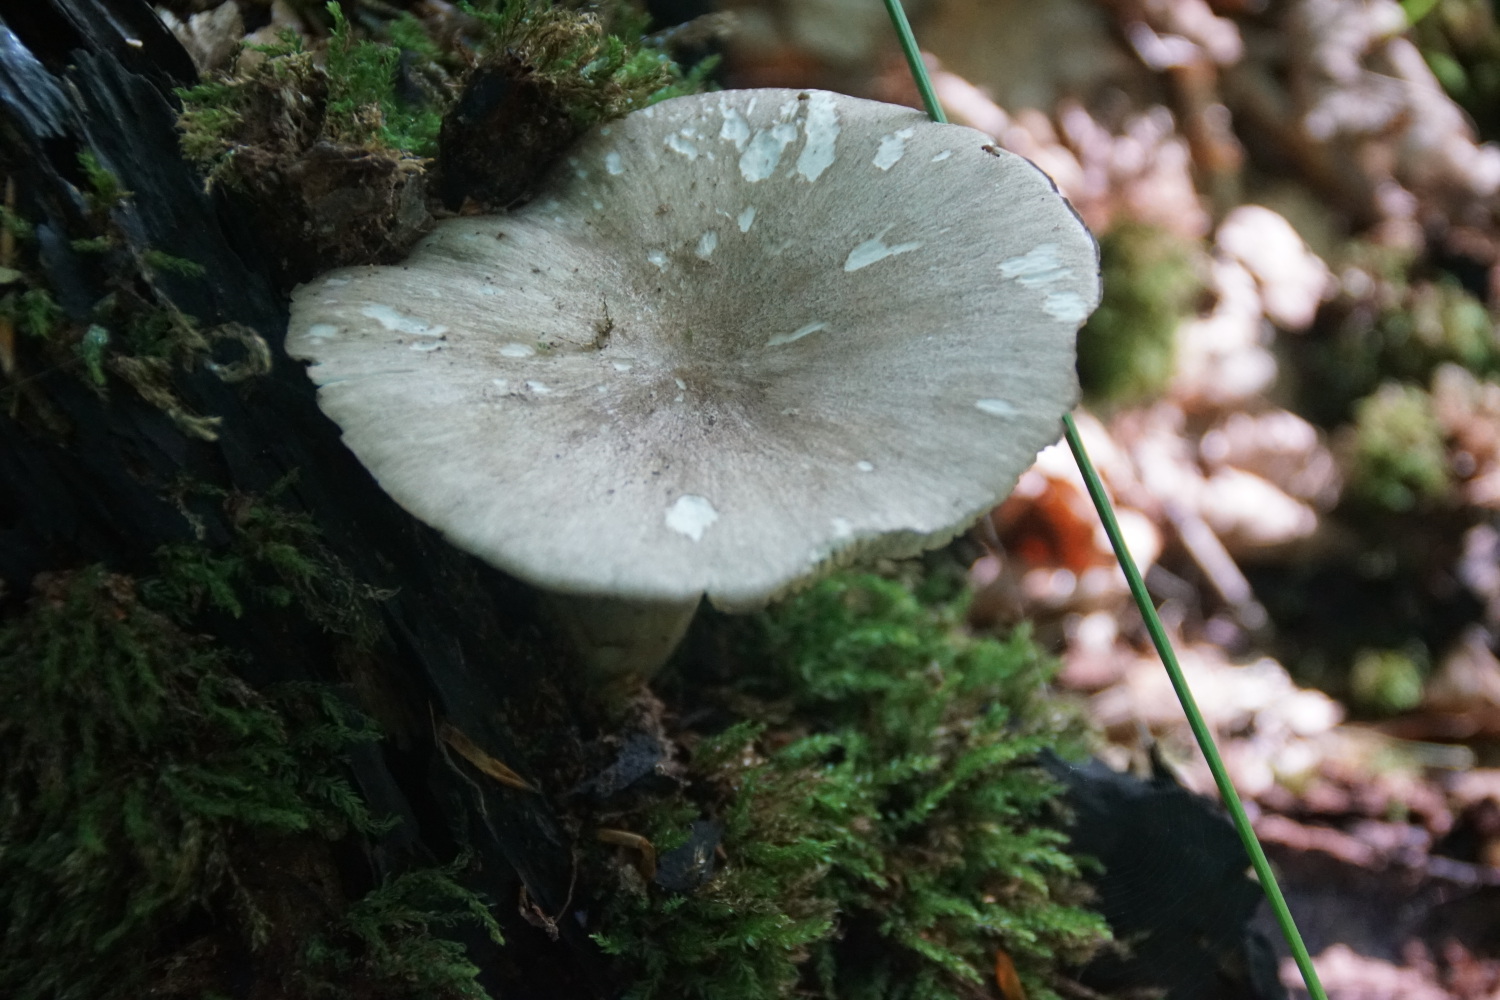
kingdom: Fungi
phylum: Basidiomycota
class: Agaricomycetes
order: Agaricales
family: Tricholomataceae
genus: Megacollybia
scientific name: Megacollybia platyphylla
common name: bredbladet væbnerhat
